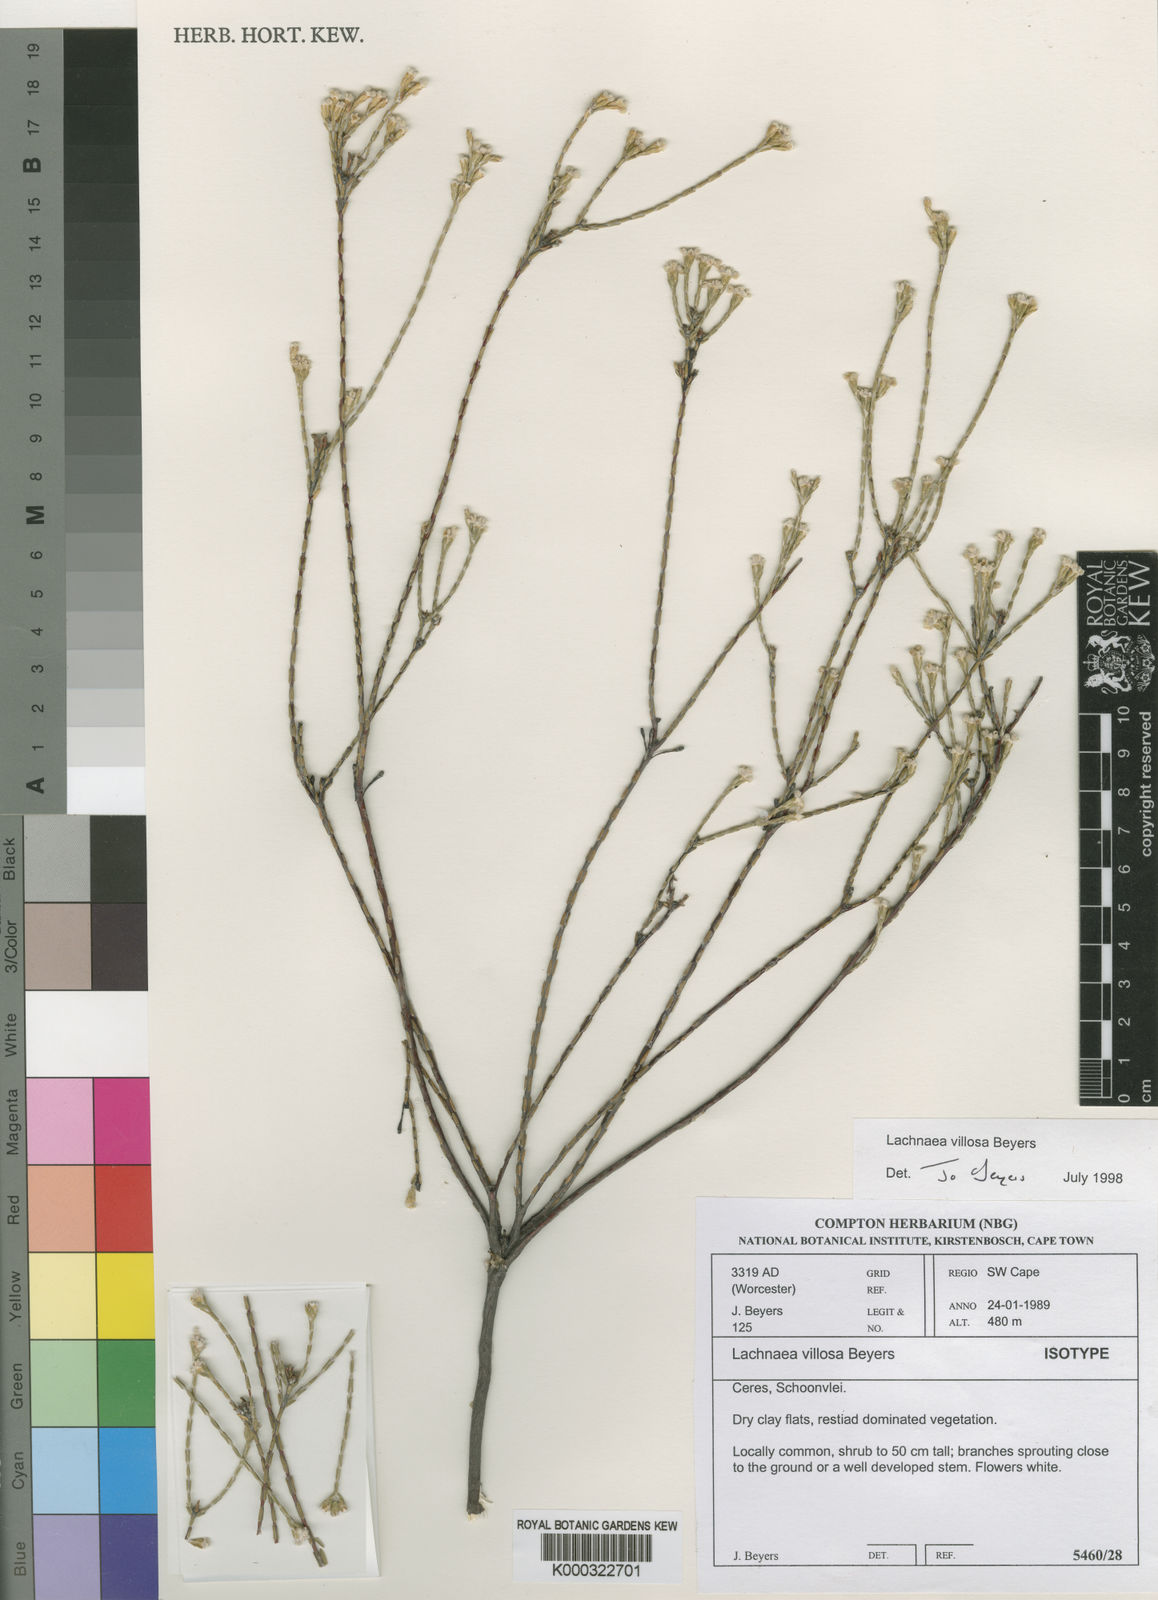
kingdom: Plantae
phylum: Tracheophyta
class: Magnoliopsida
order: Malvales
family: Thymelaeaceae
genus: Lachnaea
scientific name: Lachnaea villosa
